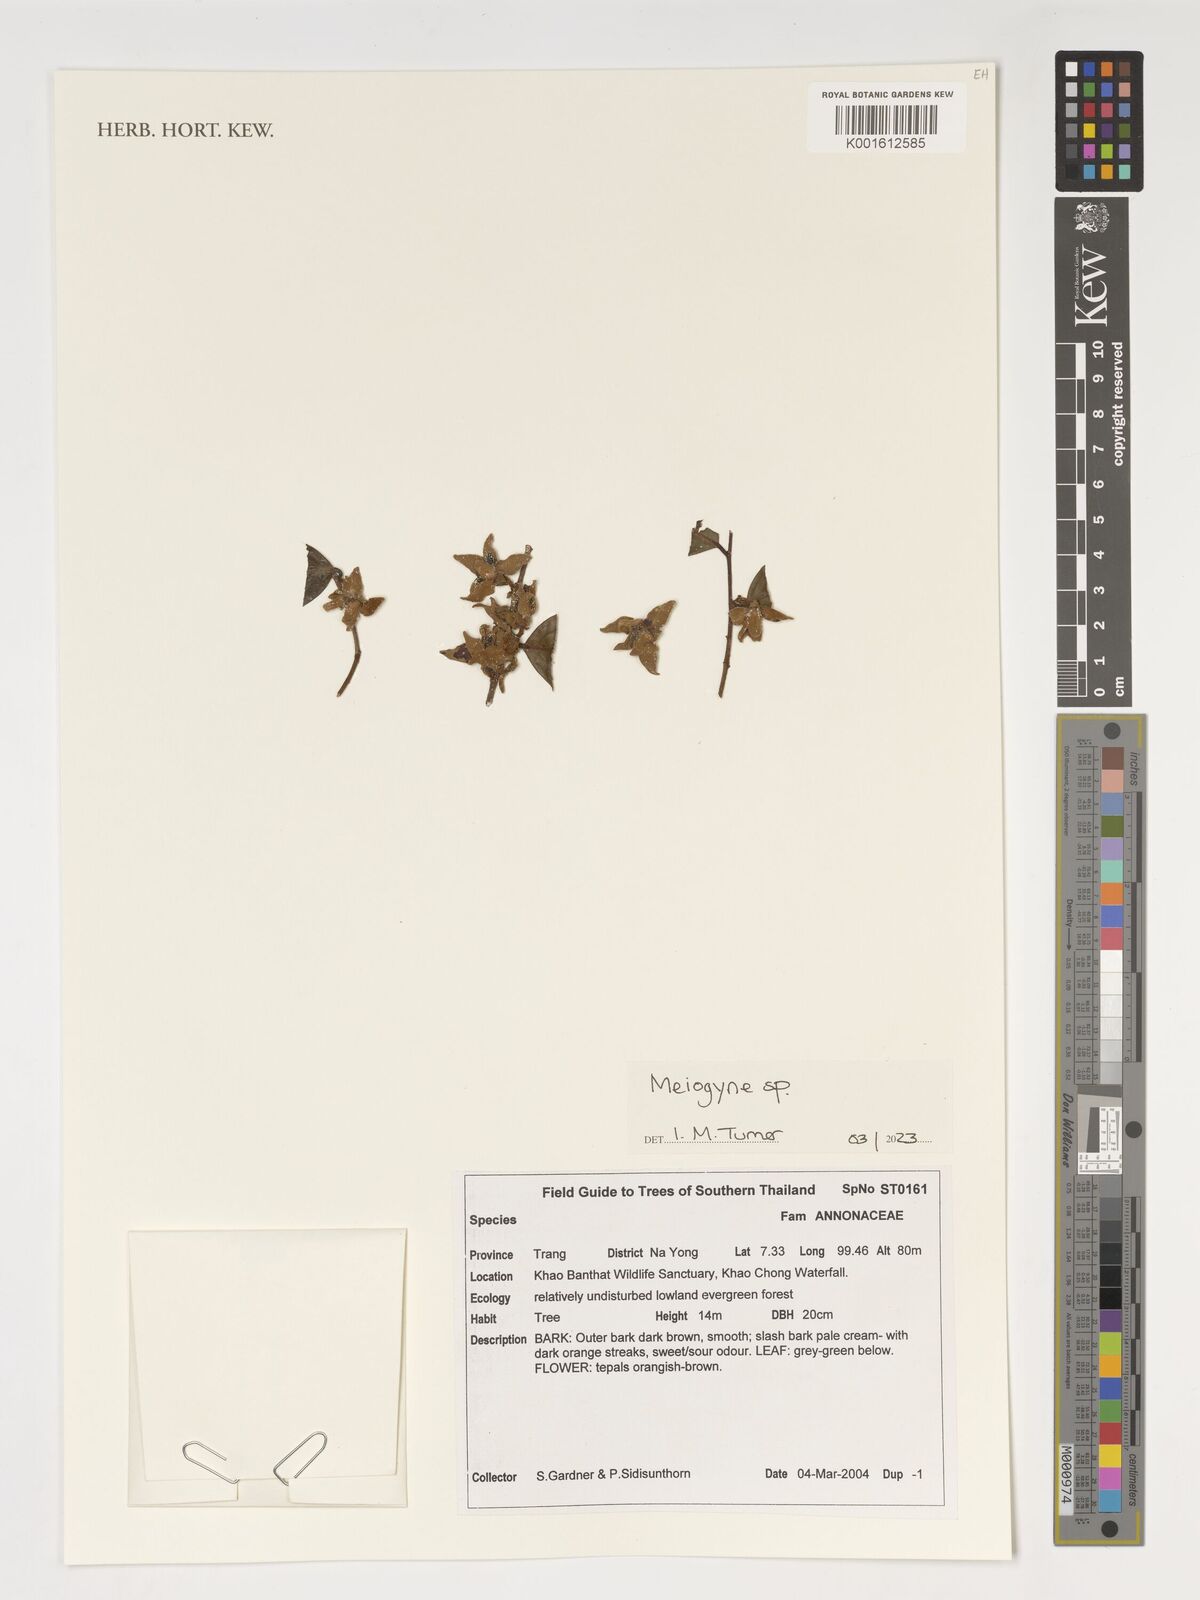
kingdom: Plantae
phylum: Tracheophyta
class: Magnoliopsida
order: Magnoliales
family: Annonaceae
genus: Meiogyne
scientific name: Meiogyne
